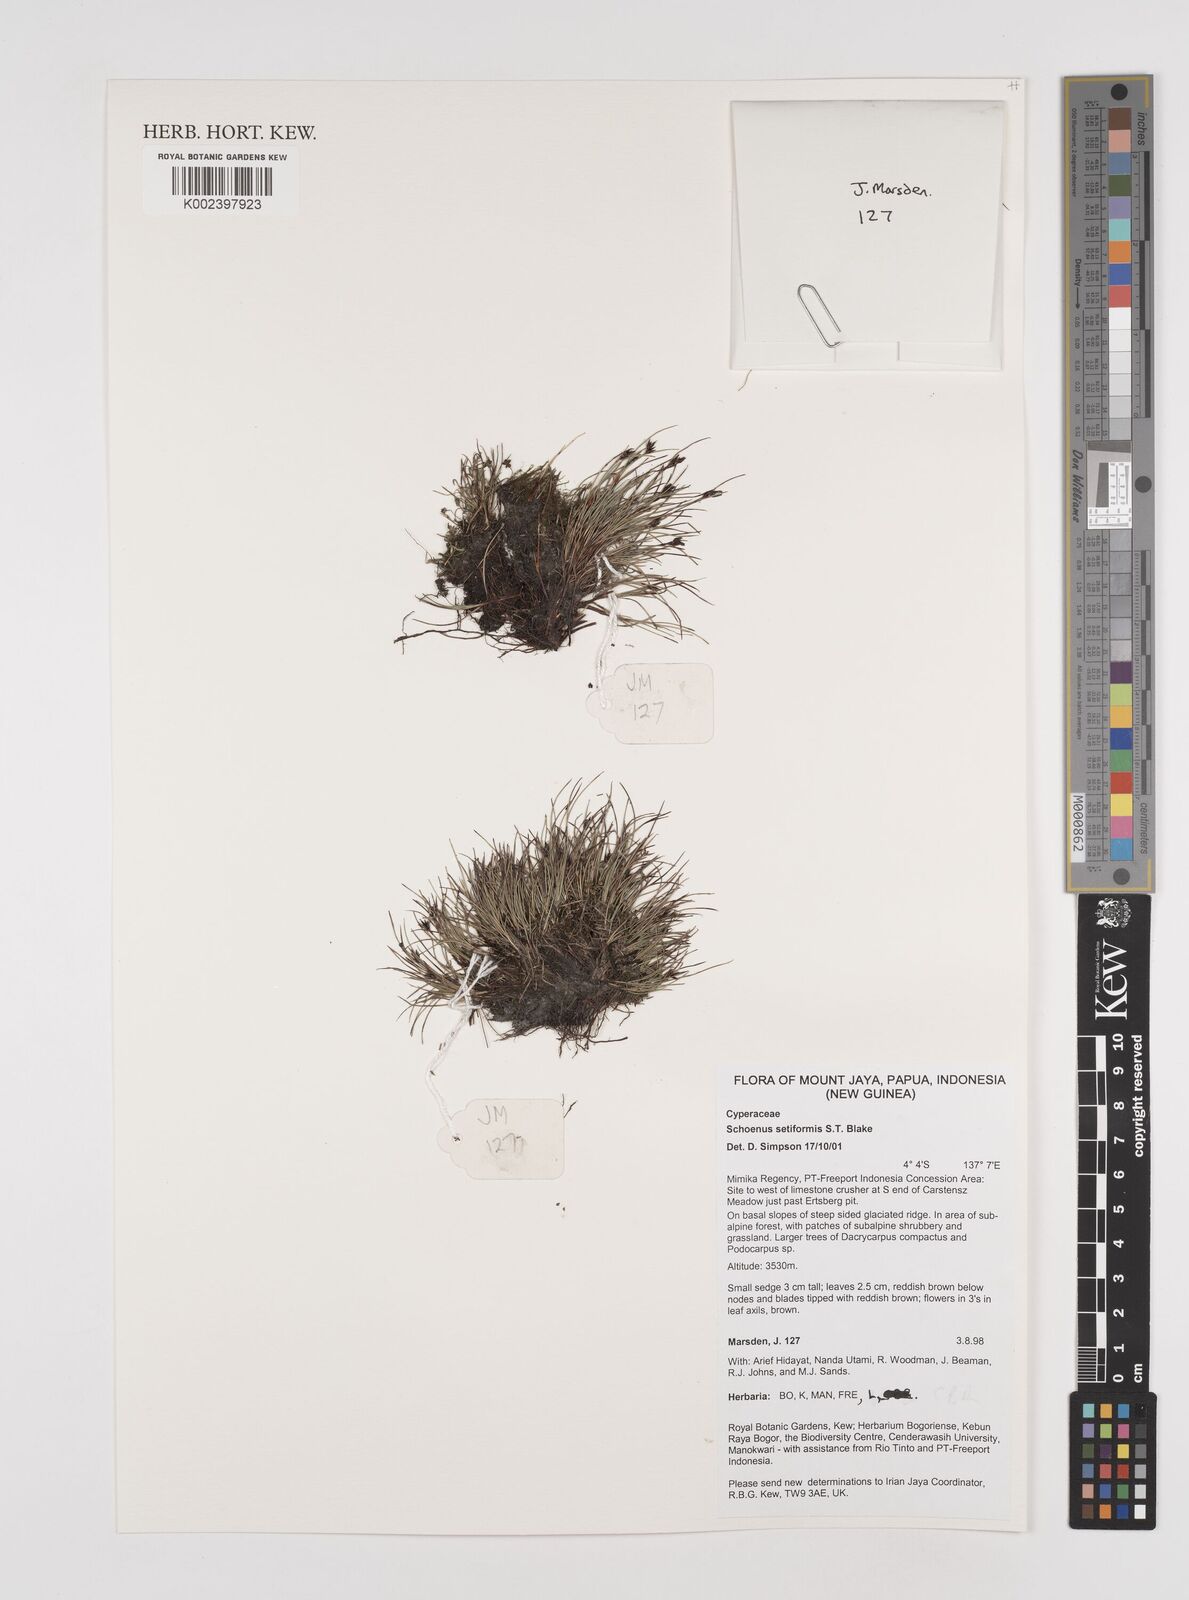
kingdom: Plantae
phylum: Tracheophyta
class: Liliopsida
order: Poales
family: Cyperaceae
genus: Schoenus
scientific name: Schoenus setiformis
